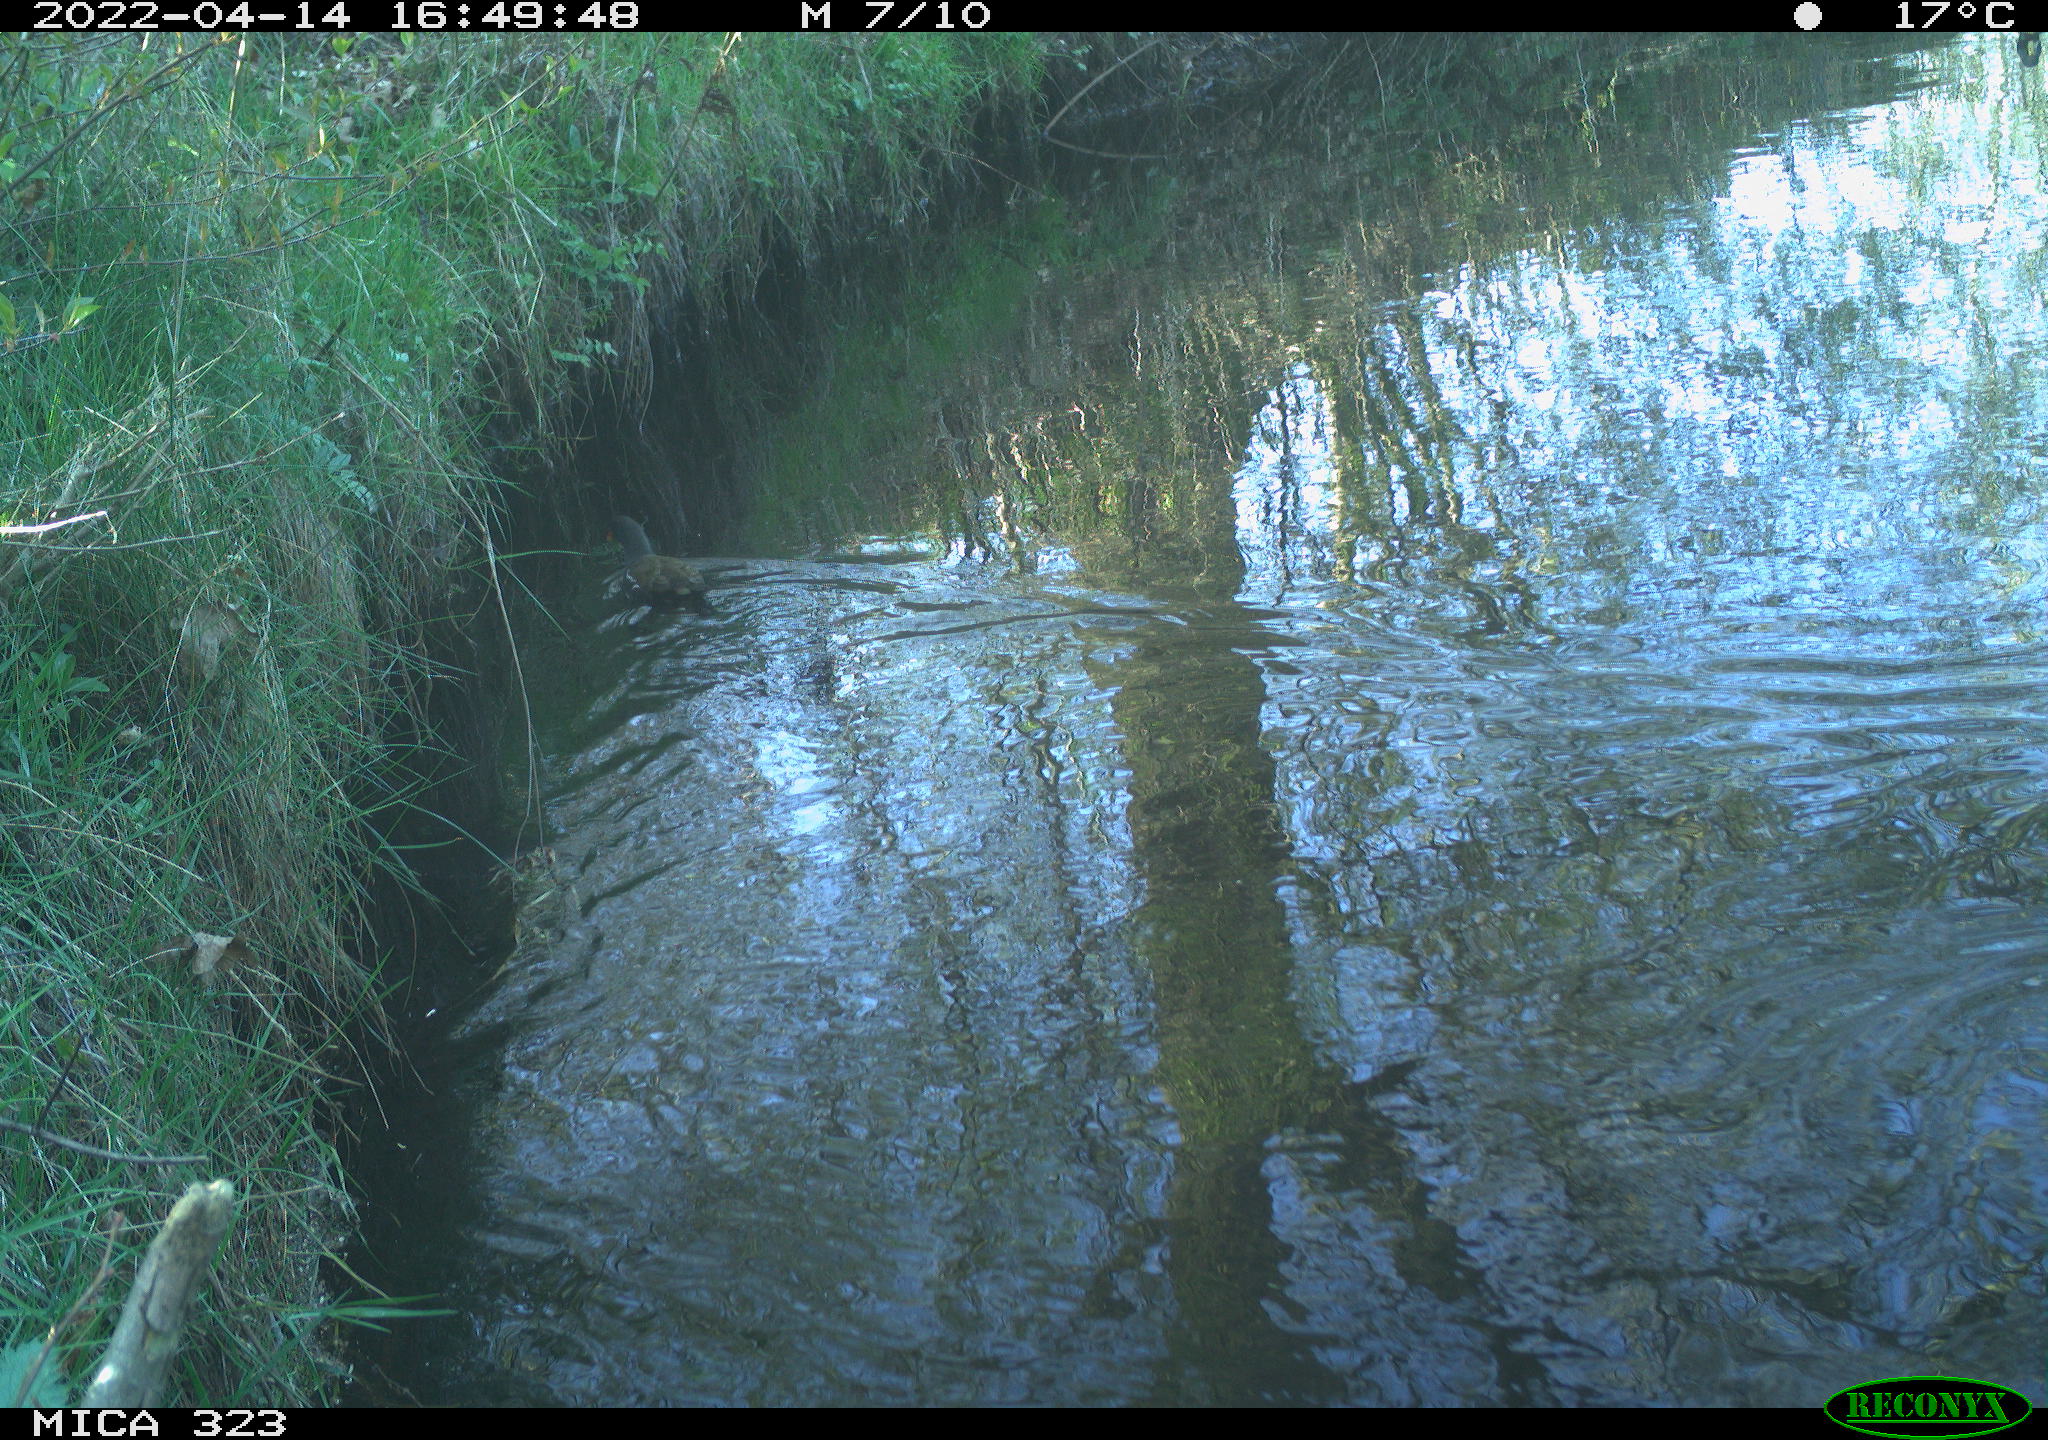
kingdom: Animalia
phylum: Chordata
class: Aves
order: Gruiformes
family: Rallidae
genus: Gallinula
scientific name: Gallinula chloropus
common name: Common moorhen
